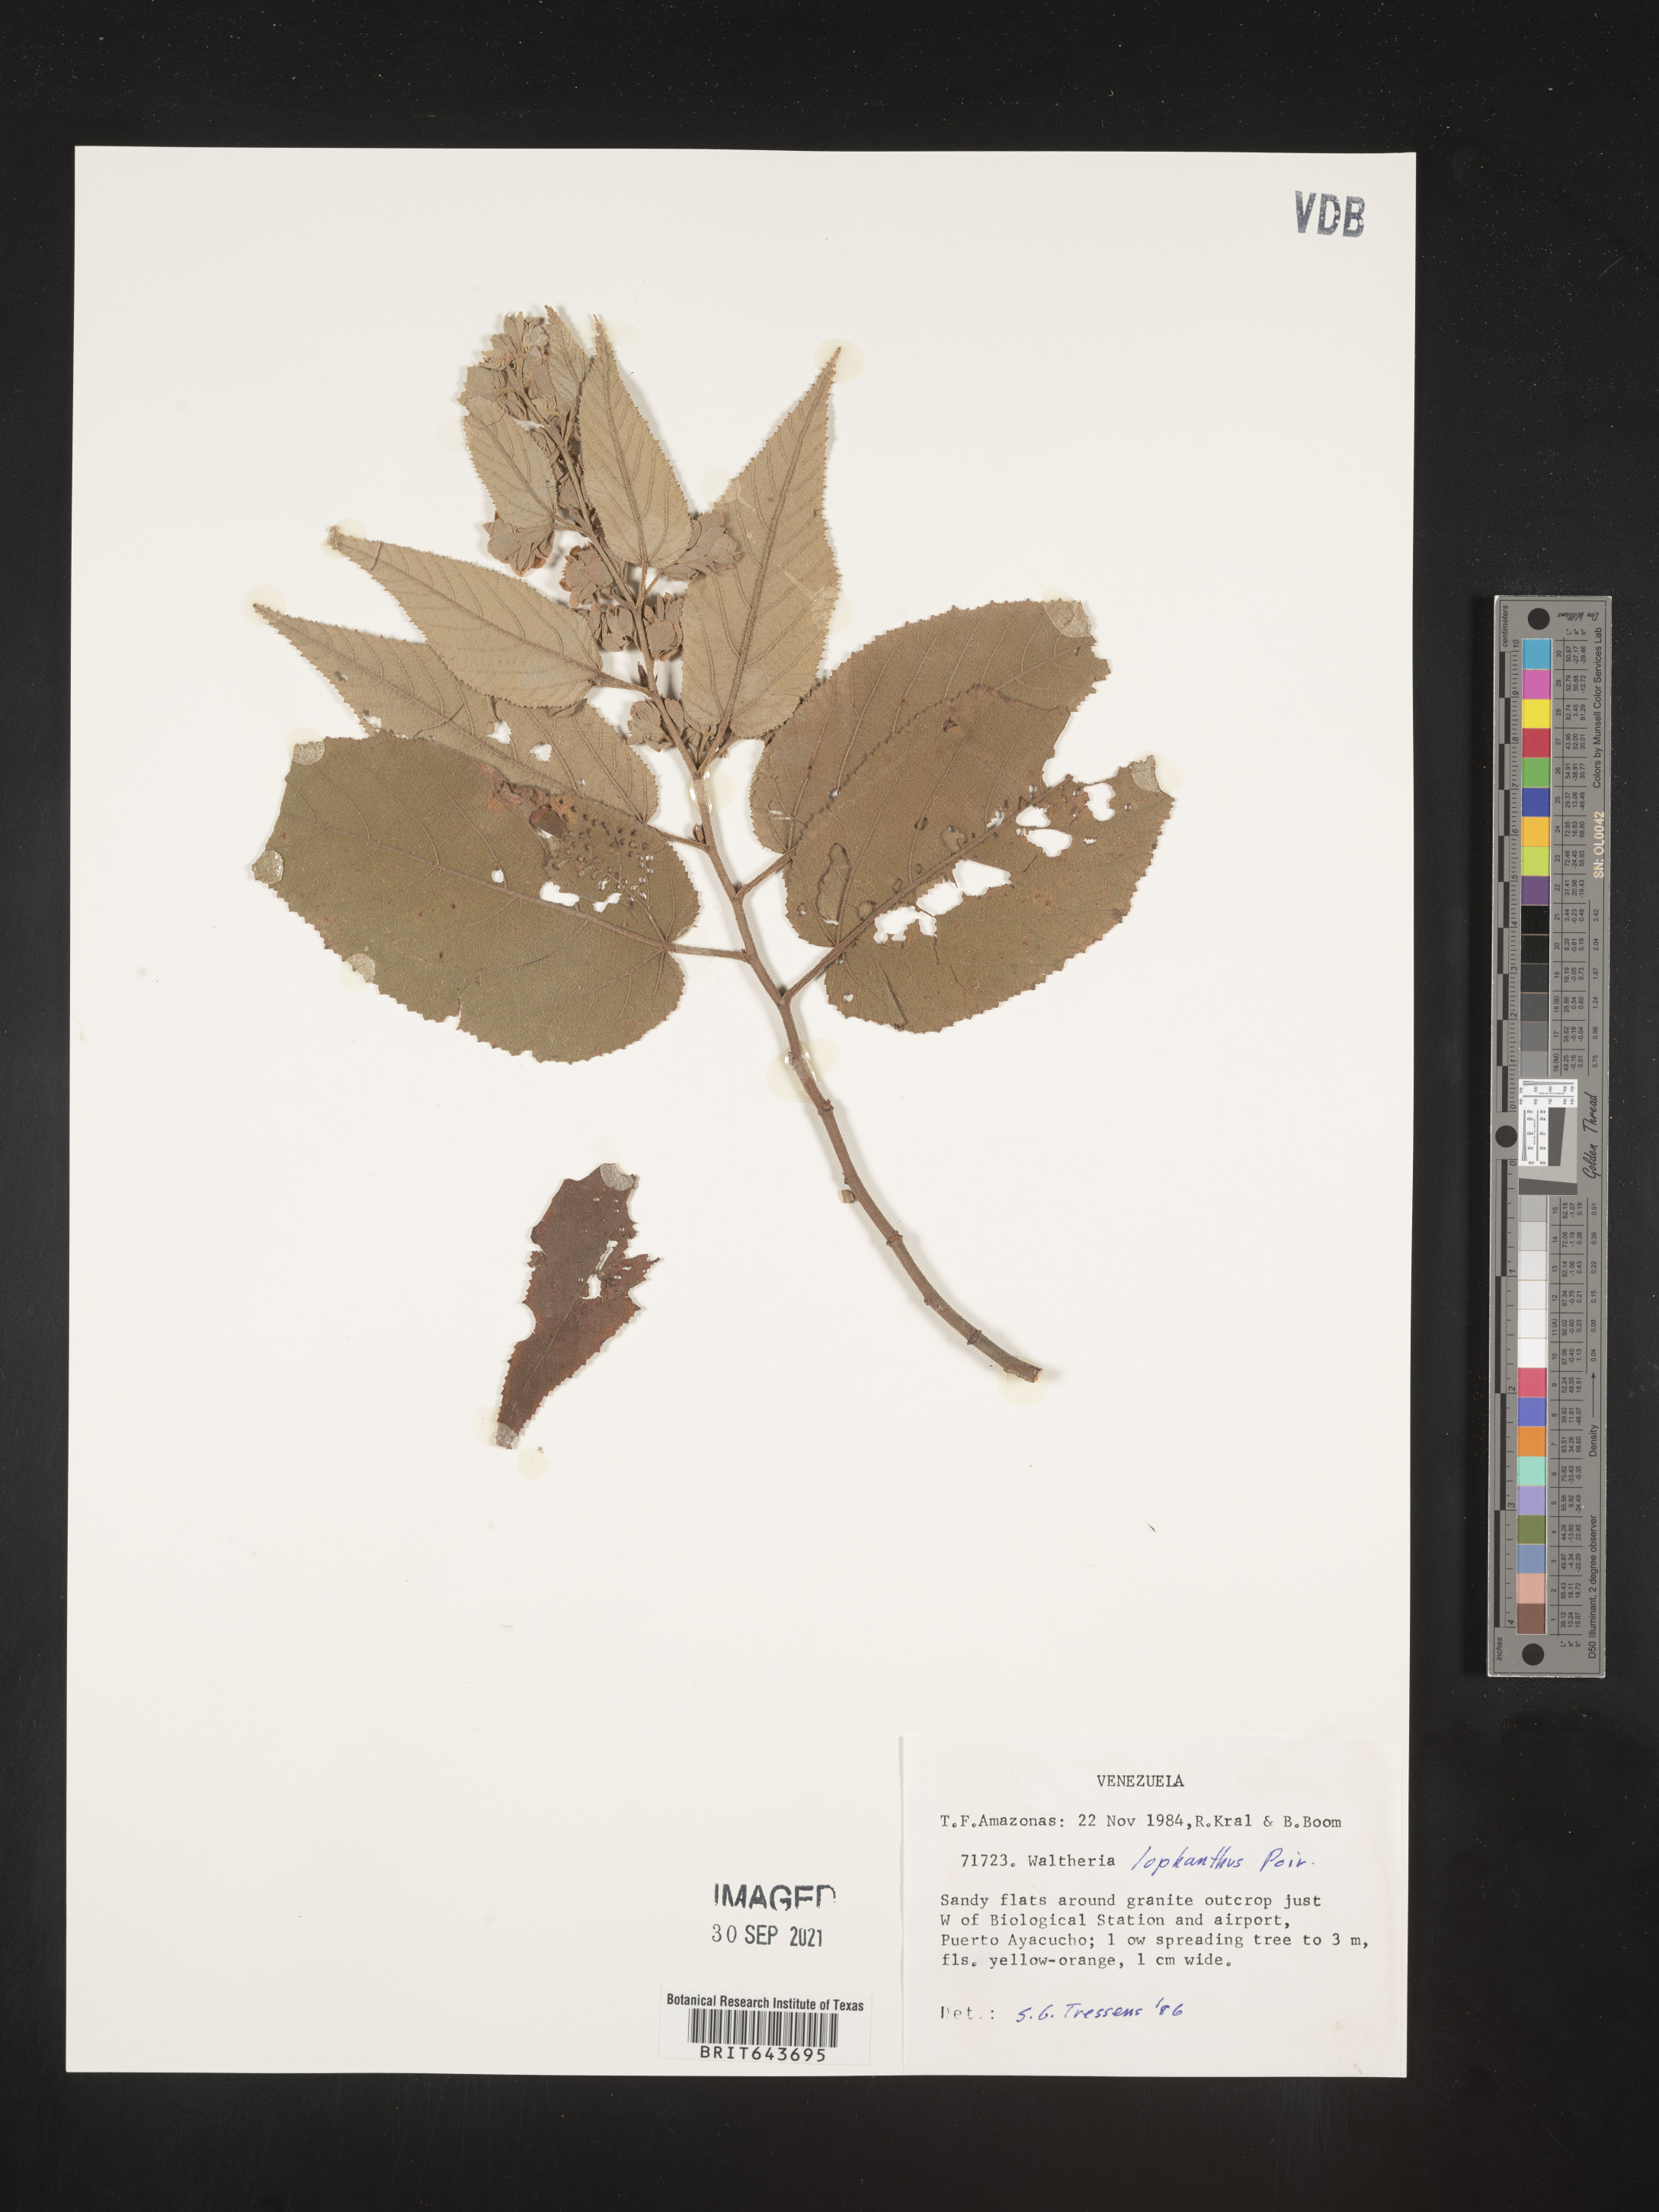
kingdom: Plantae
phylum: Tracheophyta
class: Magnoliopsida
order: Malvales
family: Malvaceae
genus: Waltheria
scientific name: Waltheria
